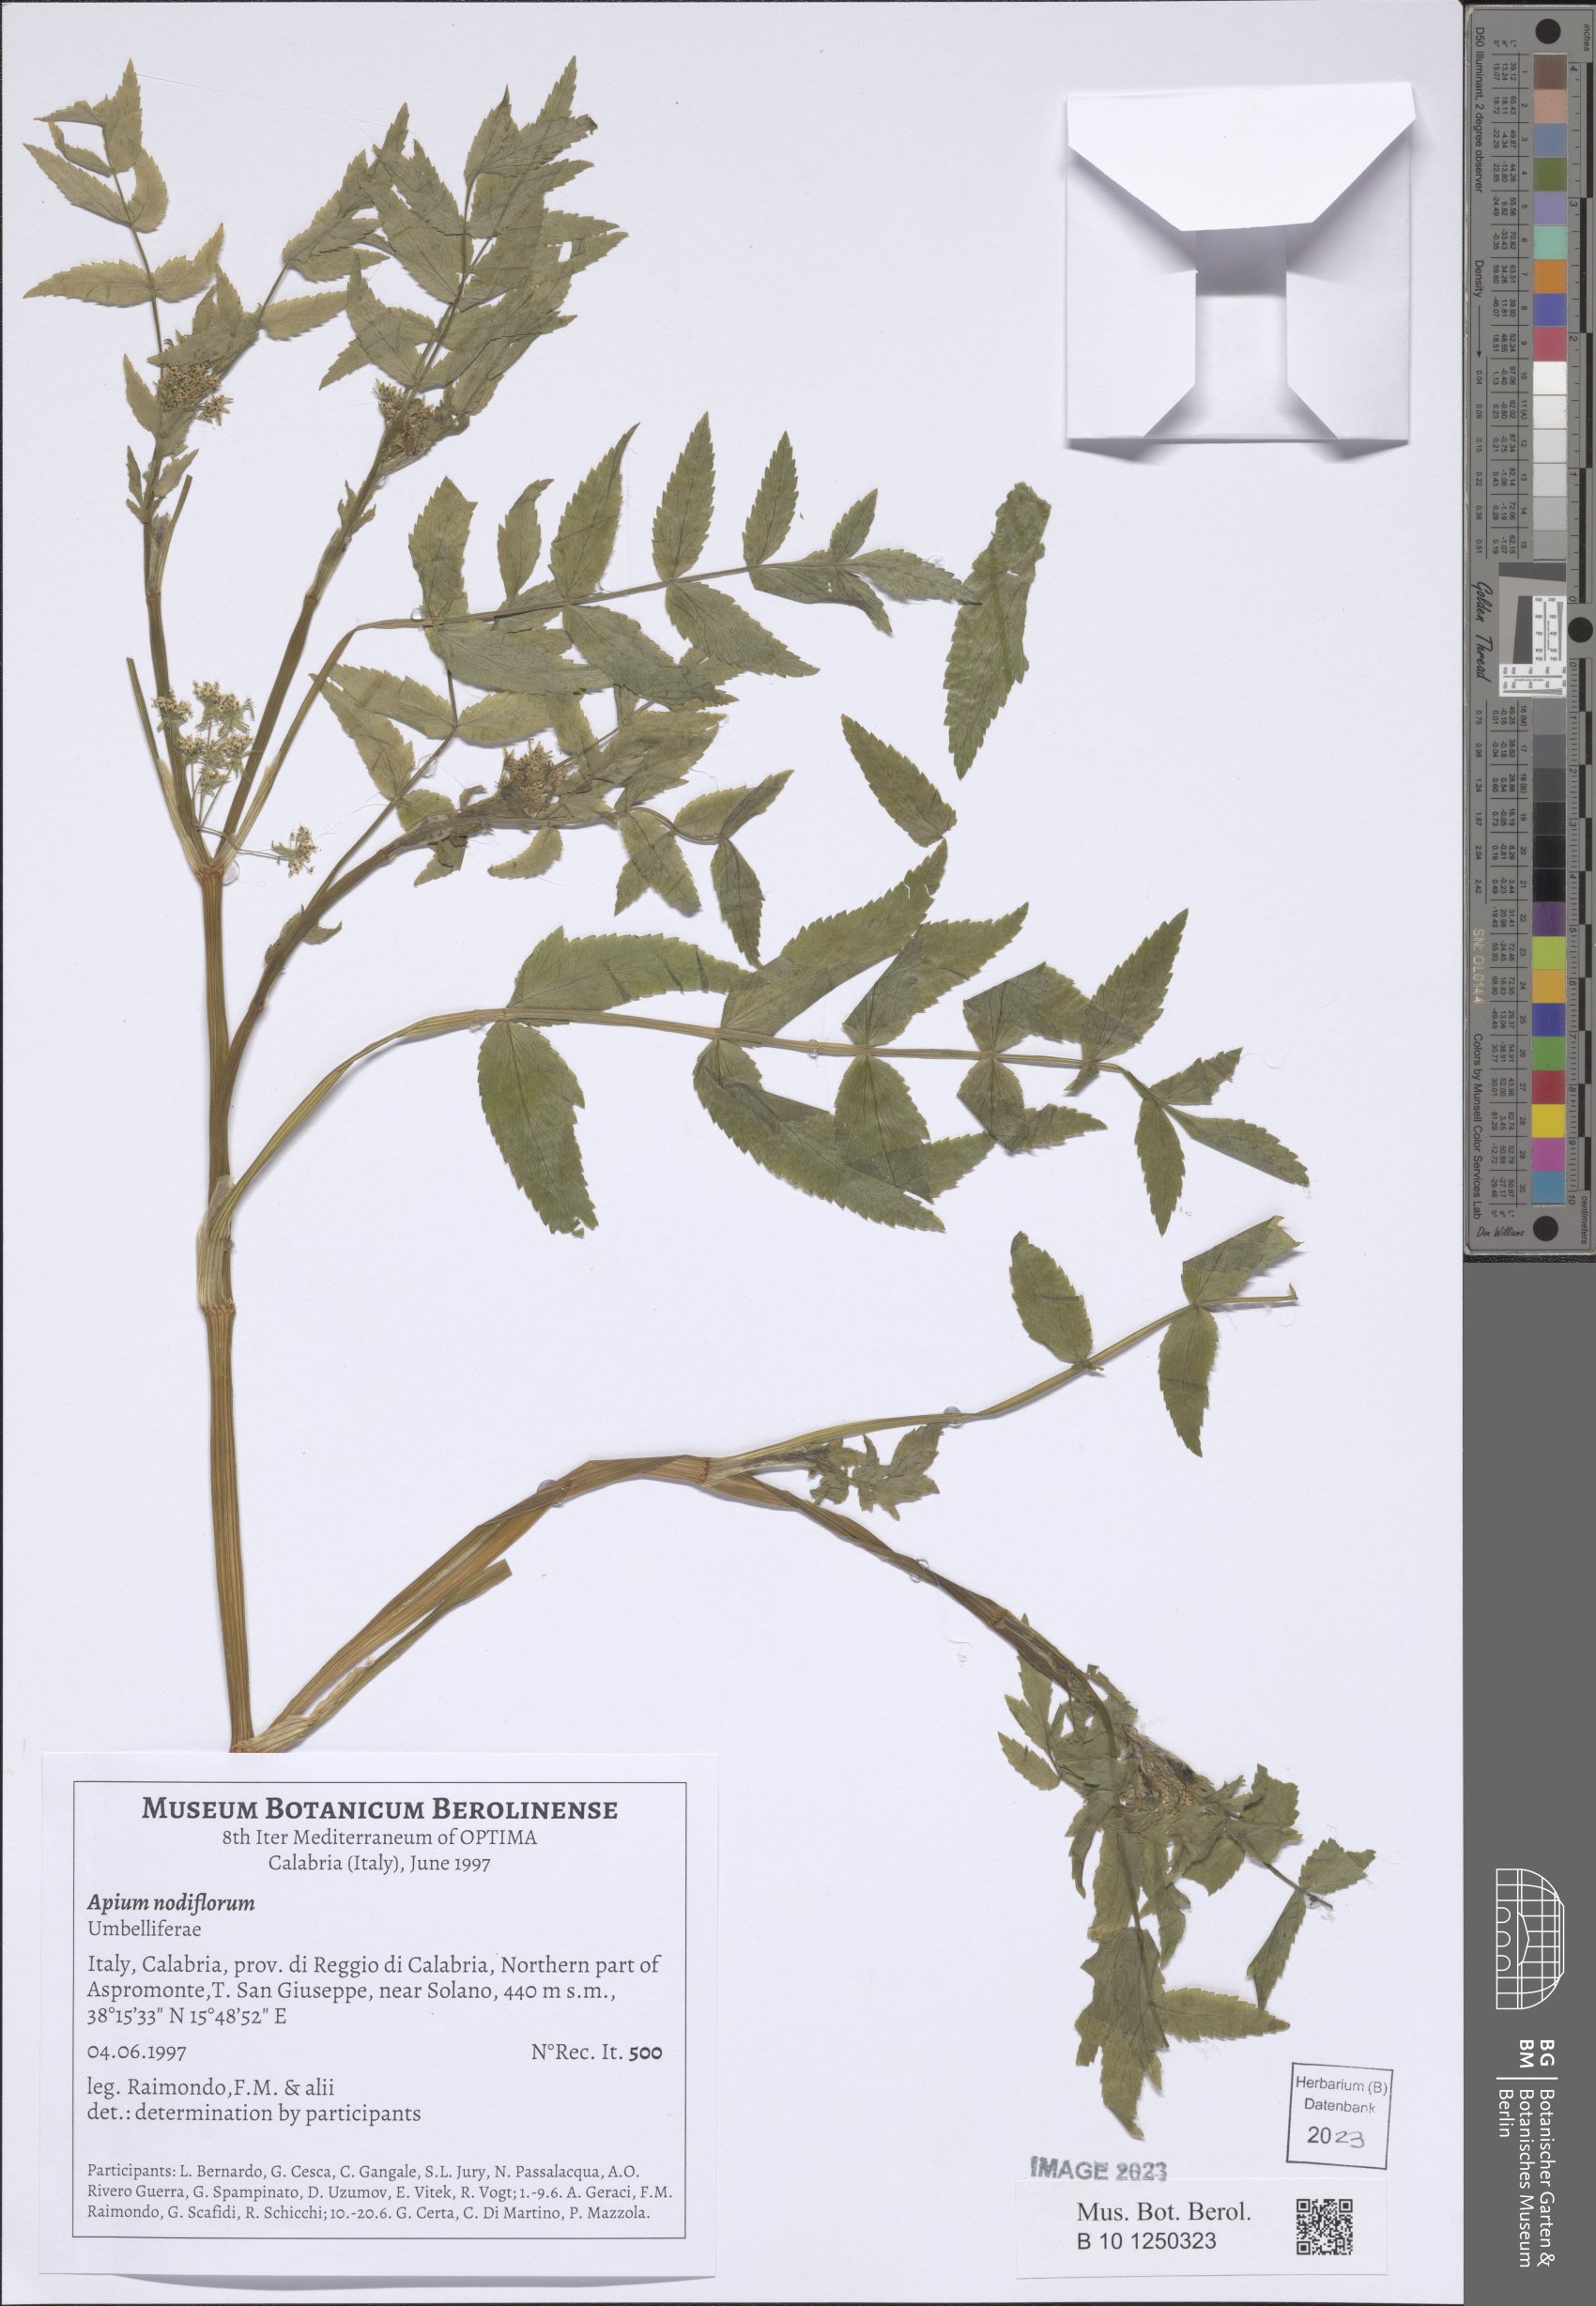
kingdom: Plantae
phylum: Tracheophyta
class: Magnoliopsida
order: Apiales
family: Apiaceae
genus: Helosciadium
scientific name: Helosciadium nodiflorum
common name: Fool's-watercress
